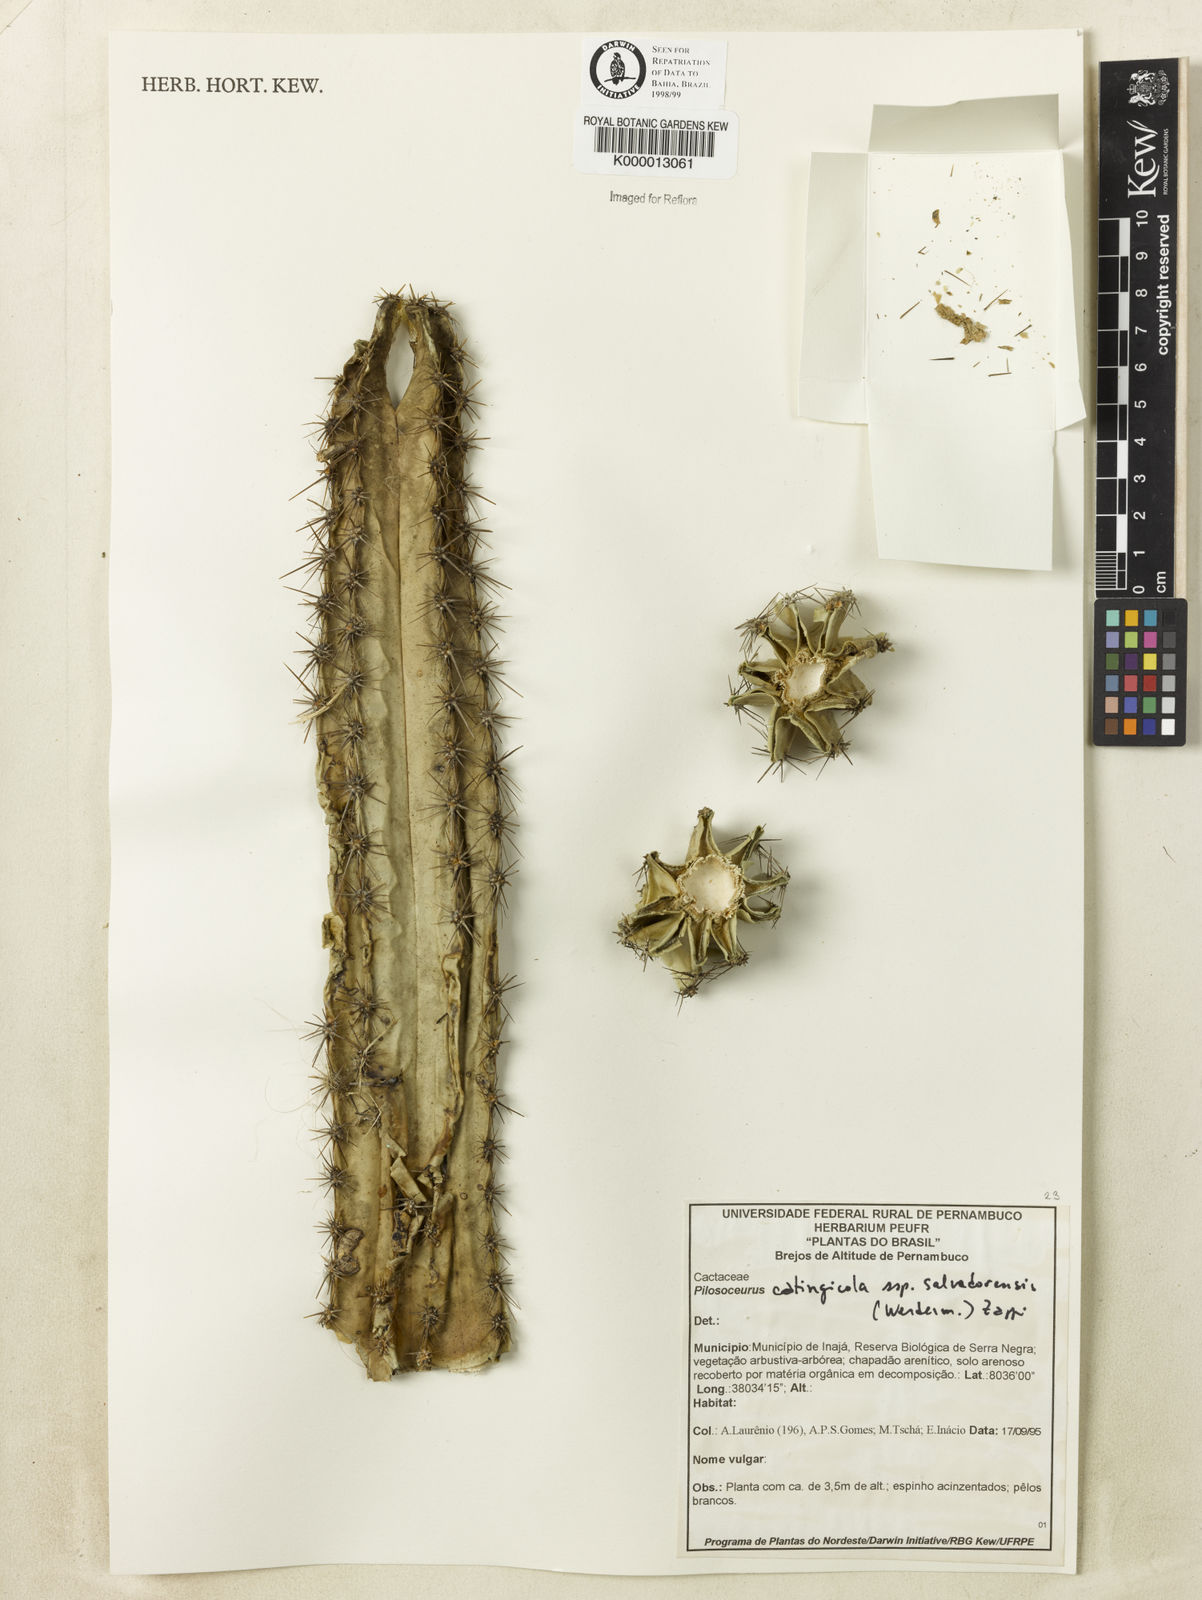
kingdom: Plantae
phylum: Tracheophyta
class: Magnoliopsida
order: Caryophyllales
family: Cactaceae
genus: Pilosocereus
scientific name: Pilosocereus catingicola
